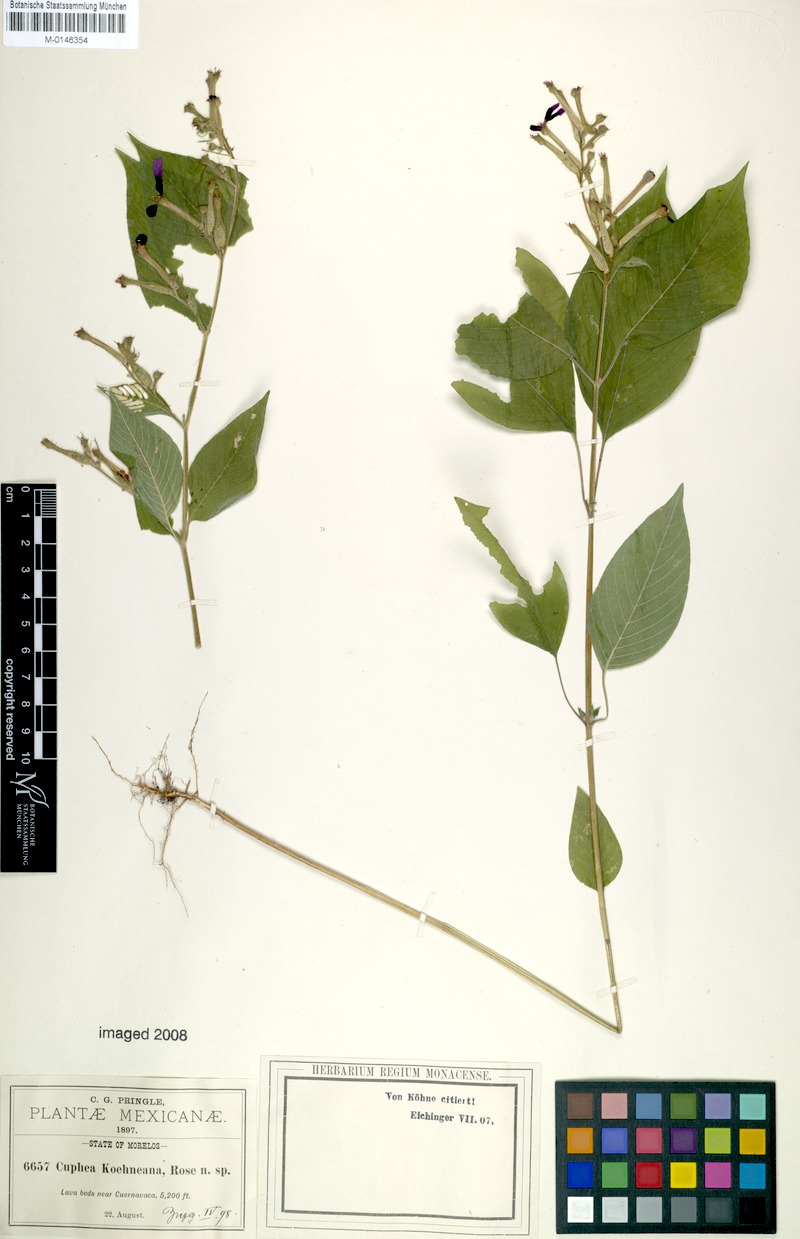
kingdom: Plantae
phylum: Tracheophyta
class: Magnoliopsida
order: Myrtales
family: Lythraceae
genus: Cuphea
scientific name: Cuphea koehneana
